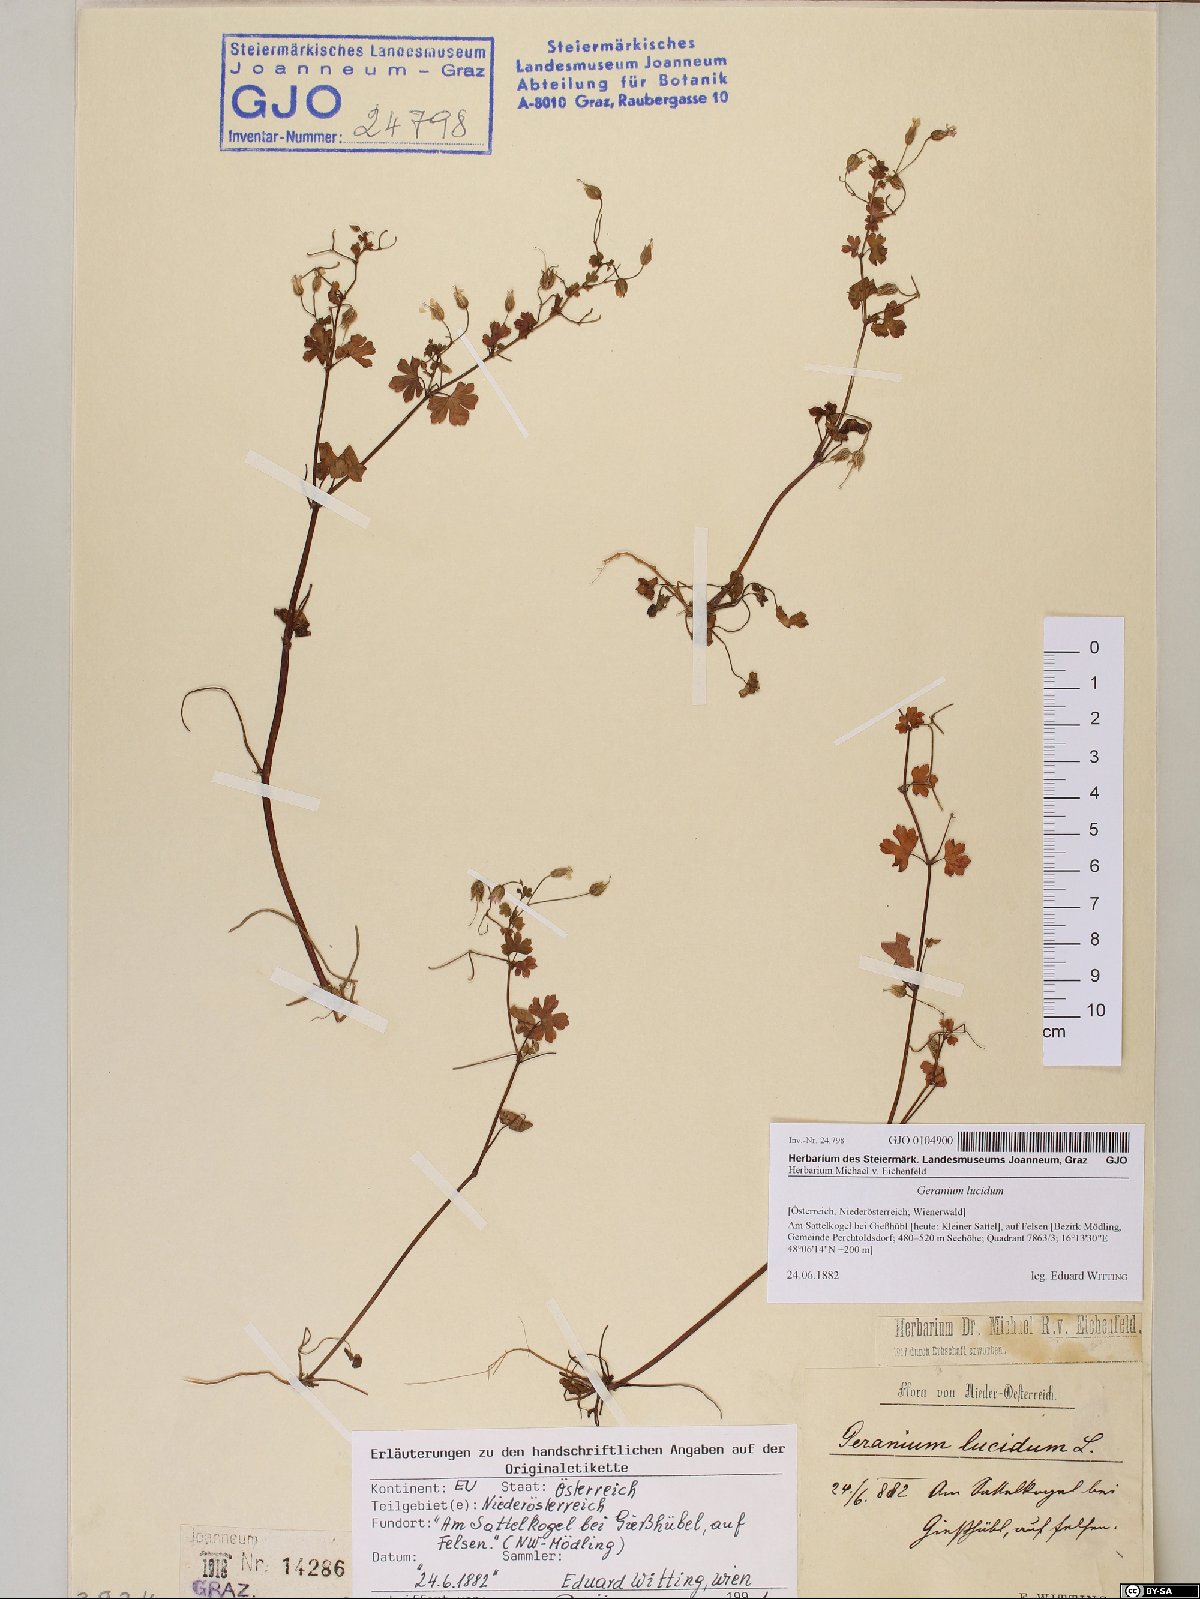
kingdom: Plantae
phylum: Tracheophyta
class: Magnoliopsida
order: Geraniales
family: Geraniaceae
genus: Geranium
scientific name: Geranium lucidum
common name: Shining crane's-bill
